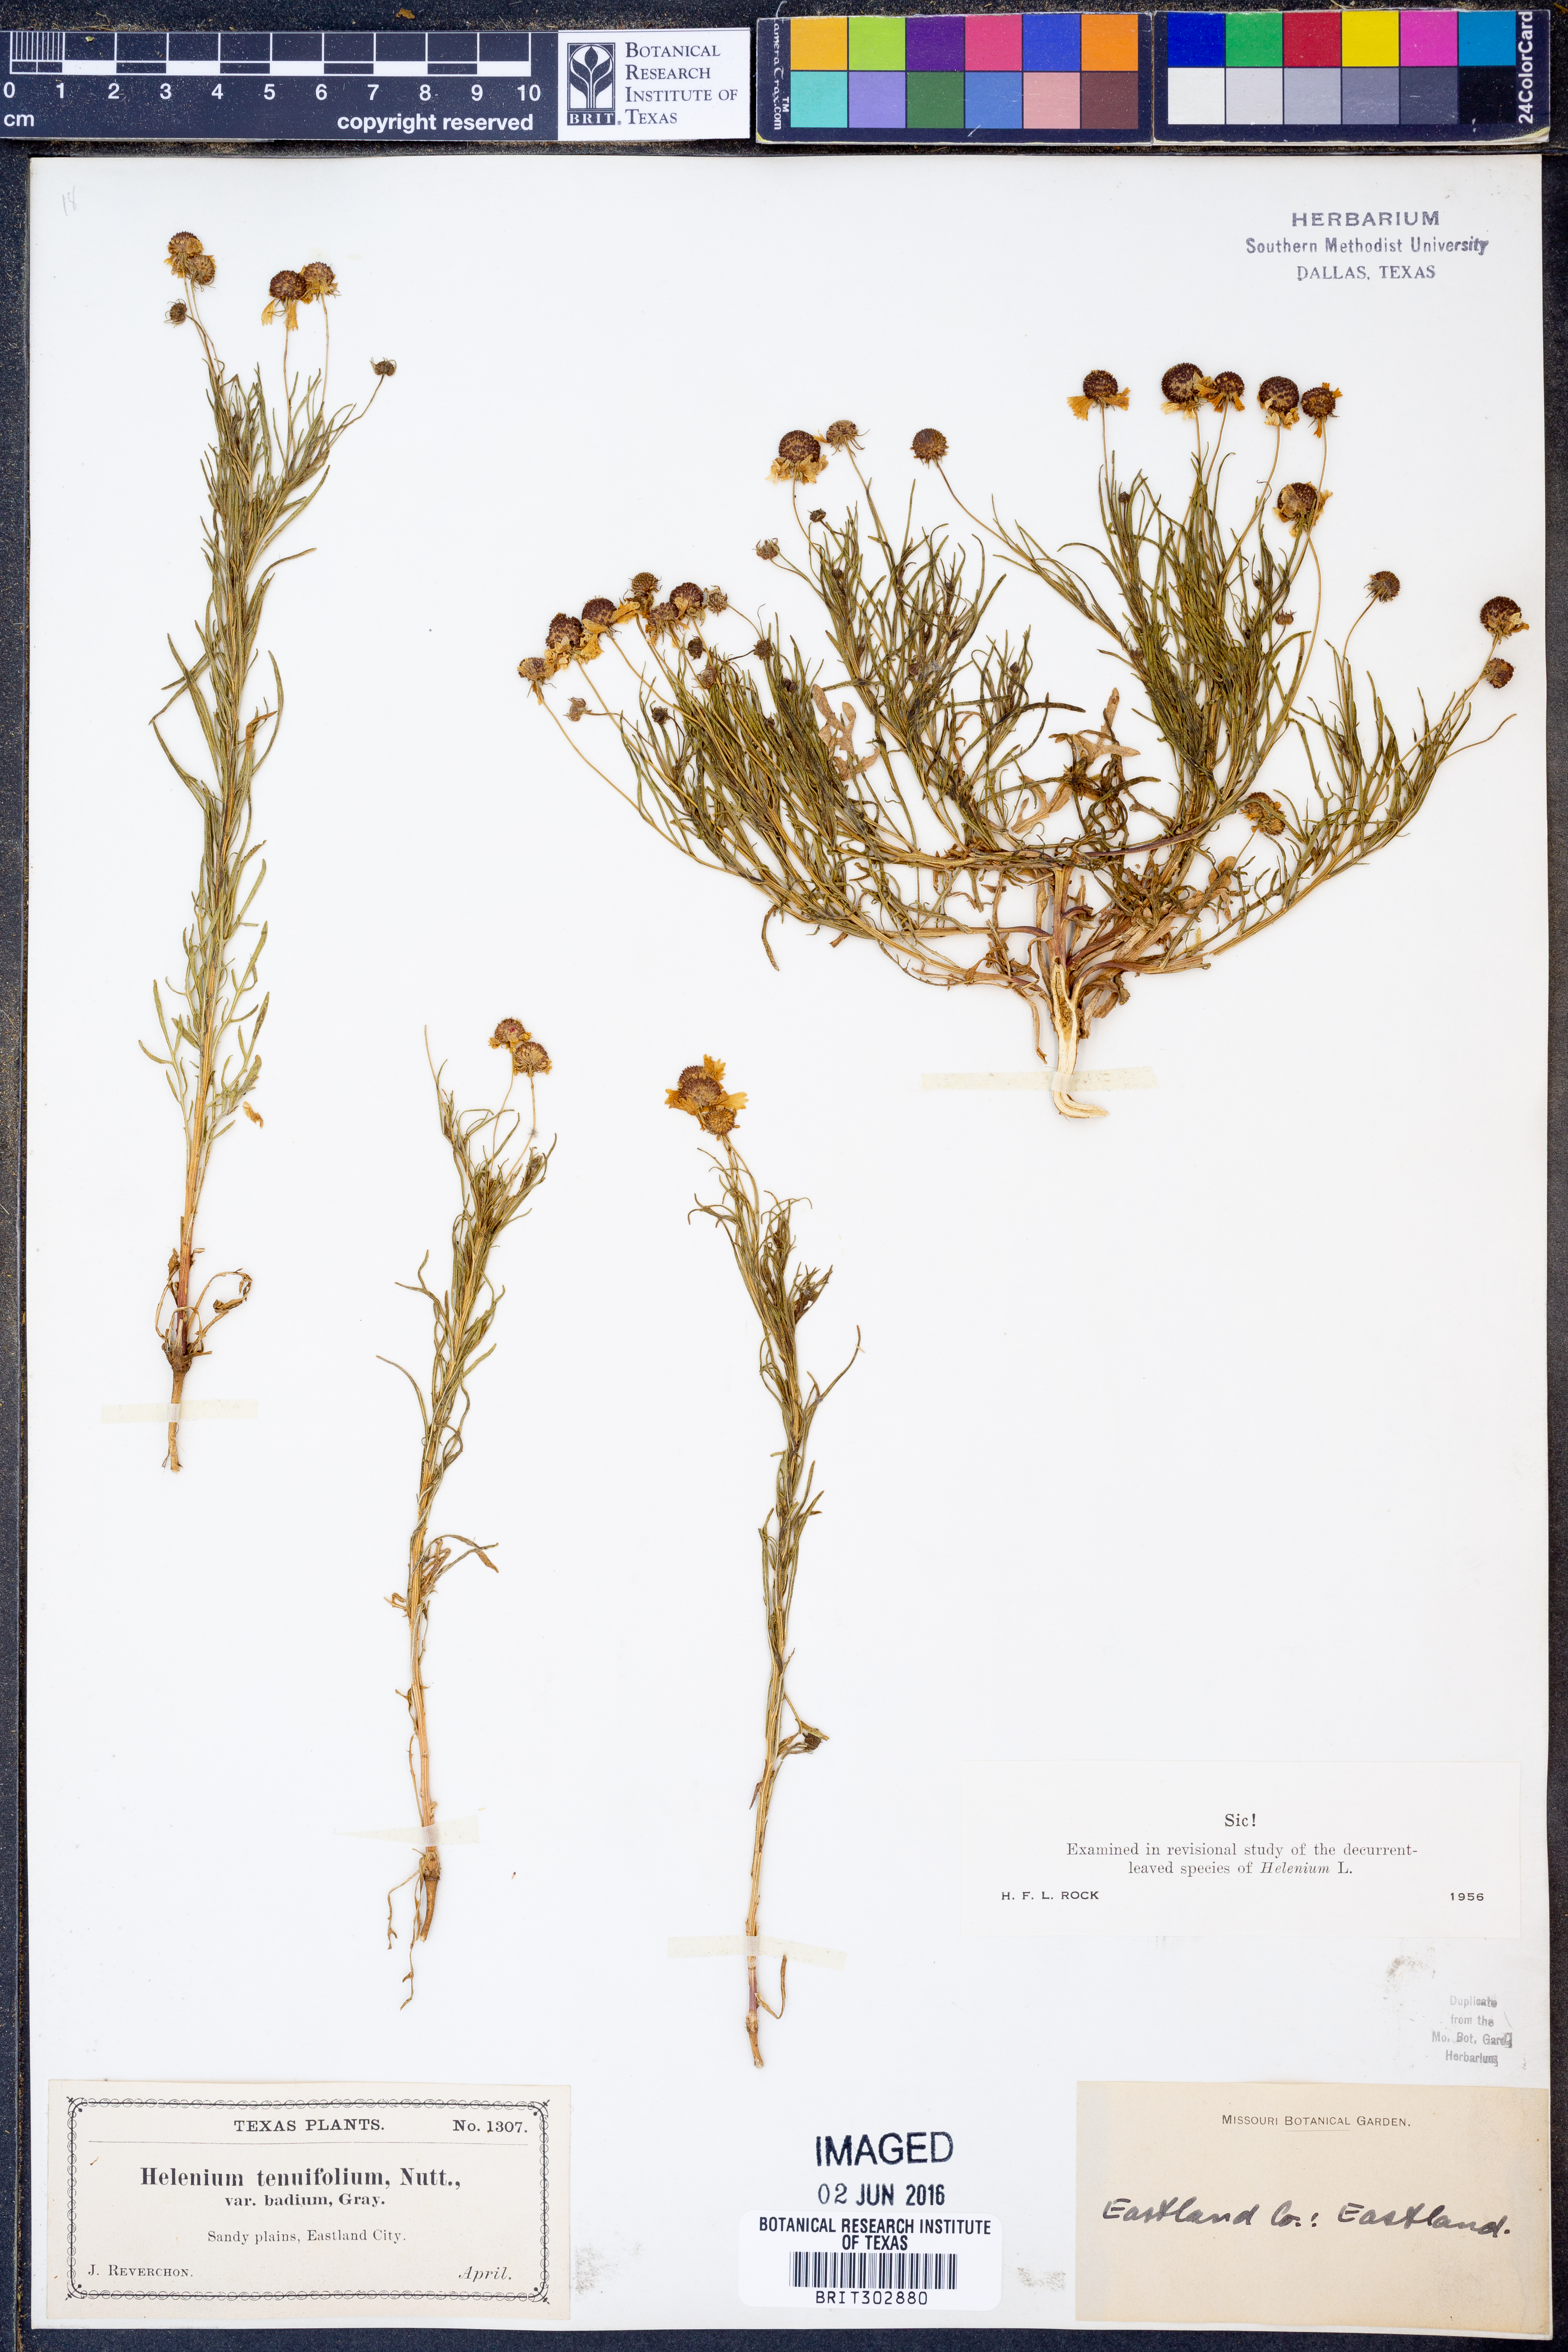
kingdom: Plantae
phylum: Tracheophyta
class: Magnoliopsida
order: Asterales
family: Asteraceae
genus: Helenium
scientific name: Helenium amarum
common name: Bitter sneezeweed
